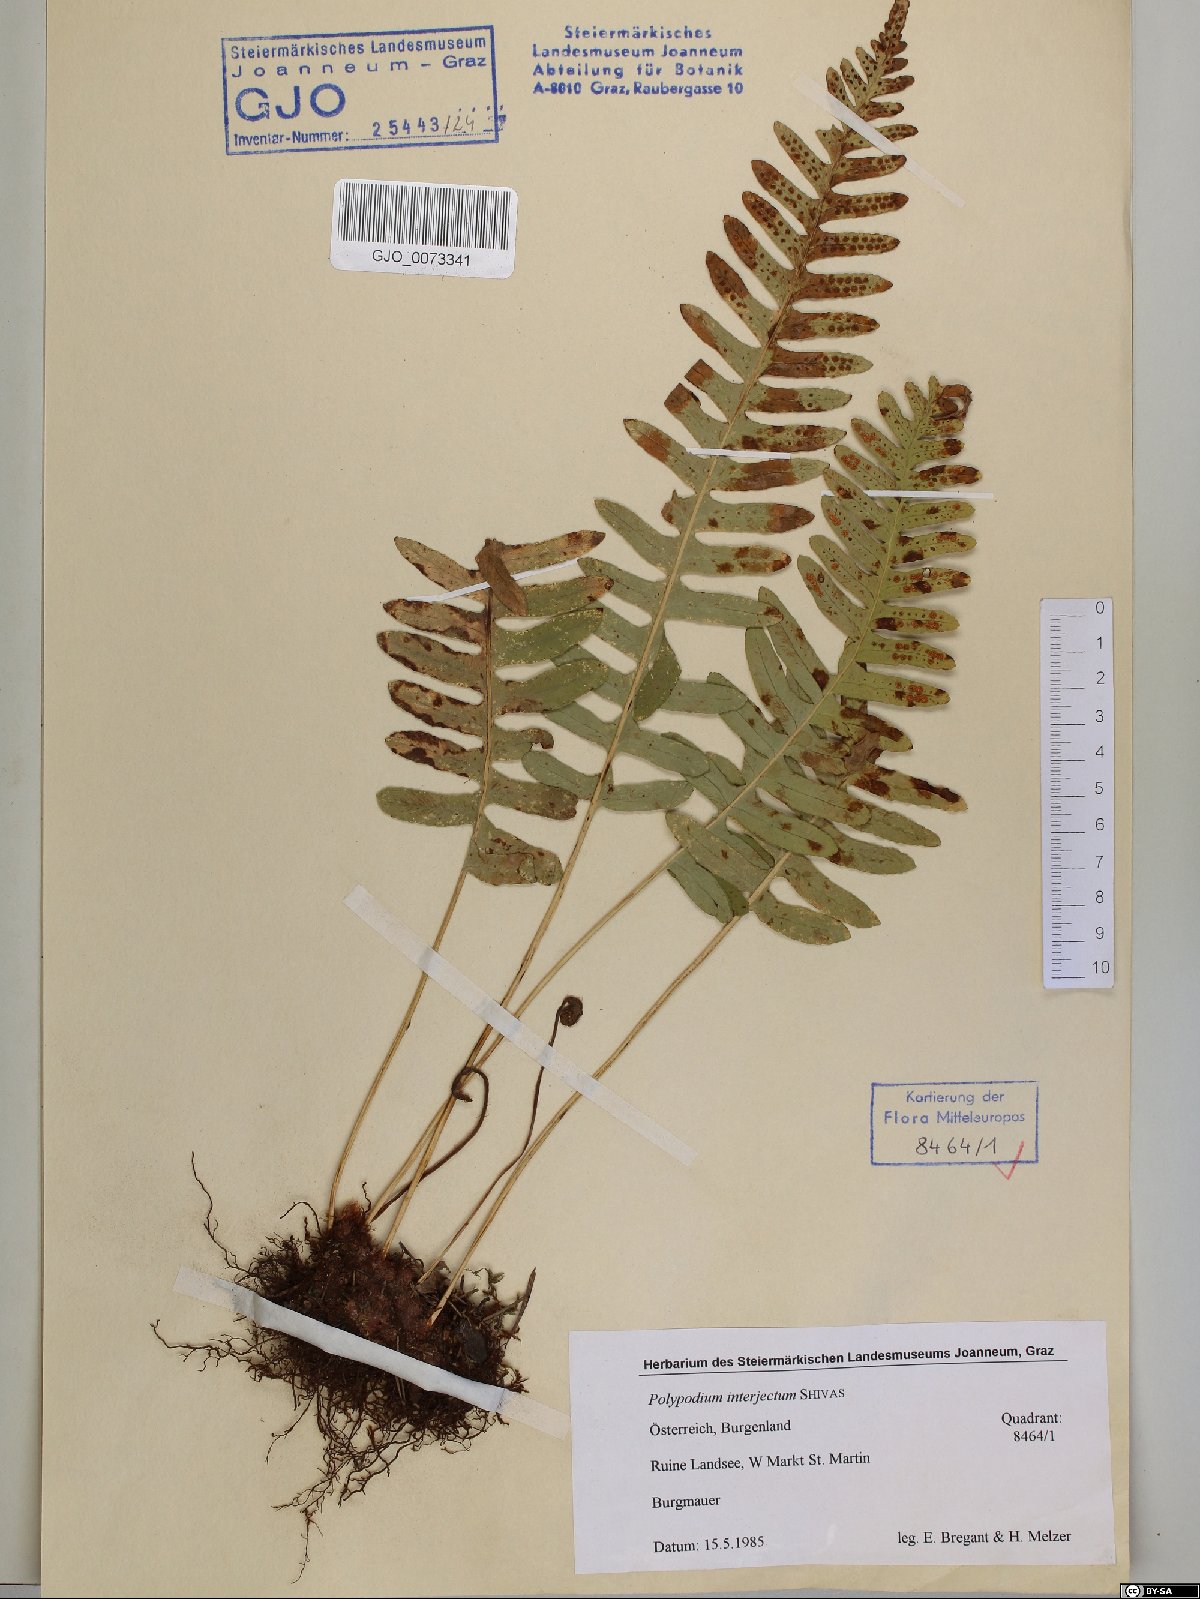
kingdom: Plantae
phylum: Tracheophyta
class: Polypodiopsida
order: Polypodiales
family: Polypodiaceae
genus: Polypodium
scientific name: Polypodium interjectum
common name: Intermediate polypody
